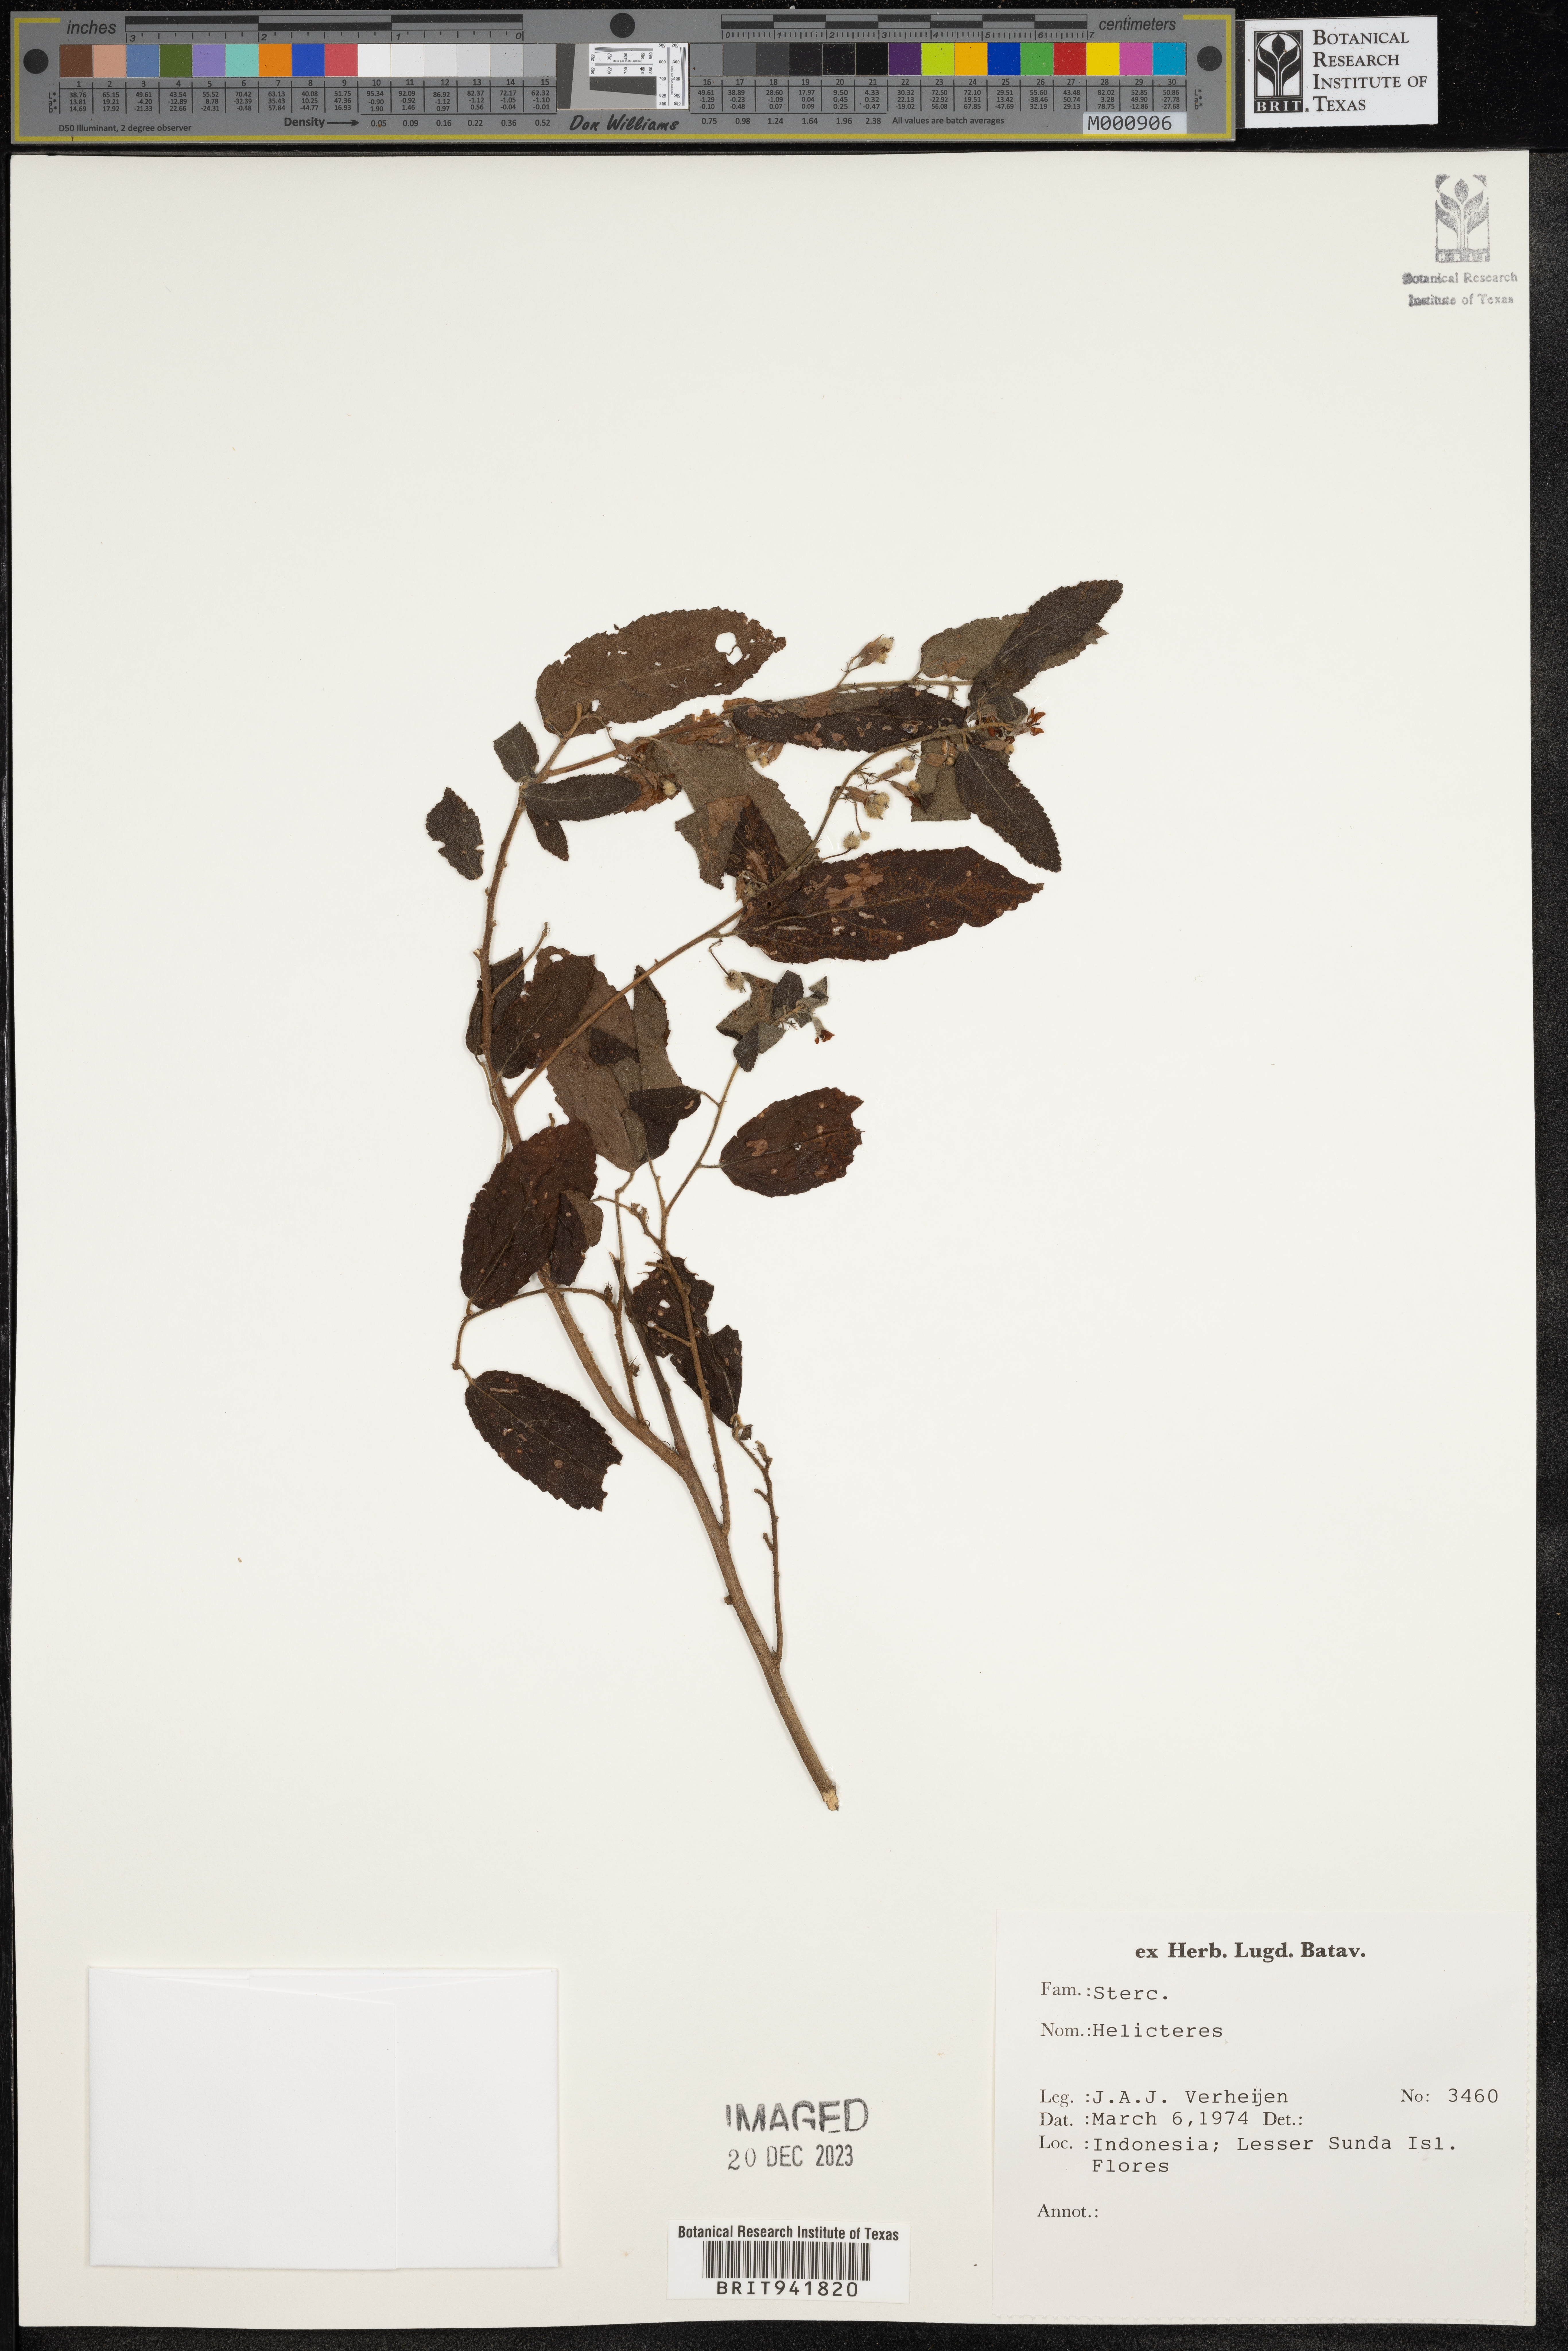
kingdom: Plantae
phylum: Tracheophyta
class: Magnoliopsida
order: Malvales
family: Malvaceae
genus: Helicteres
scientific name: Helicteres
